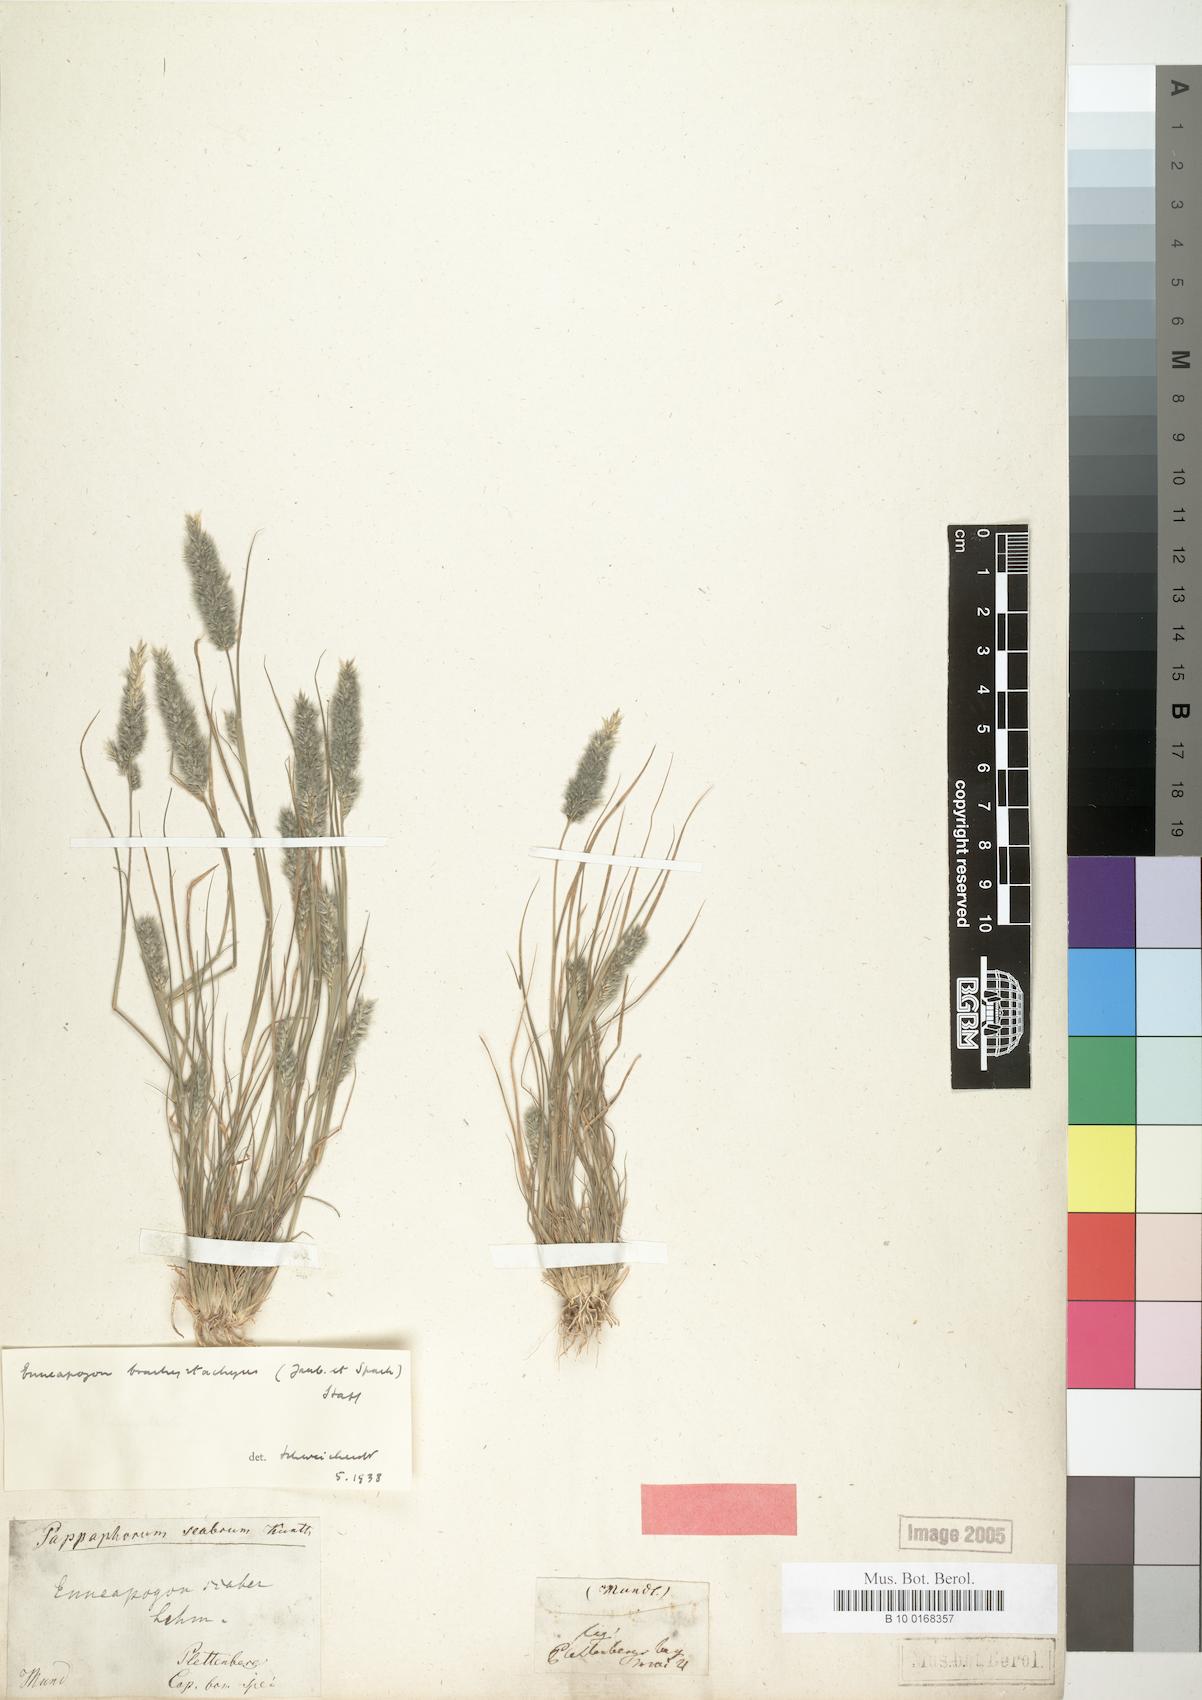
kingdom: Plantae
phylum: Tracheophyta
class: Liliopsida
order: Poales
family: Poaceae
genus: Enneapogon
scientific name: Enneapogon scaber
